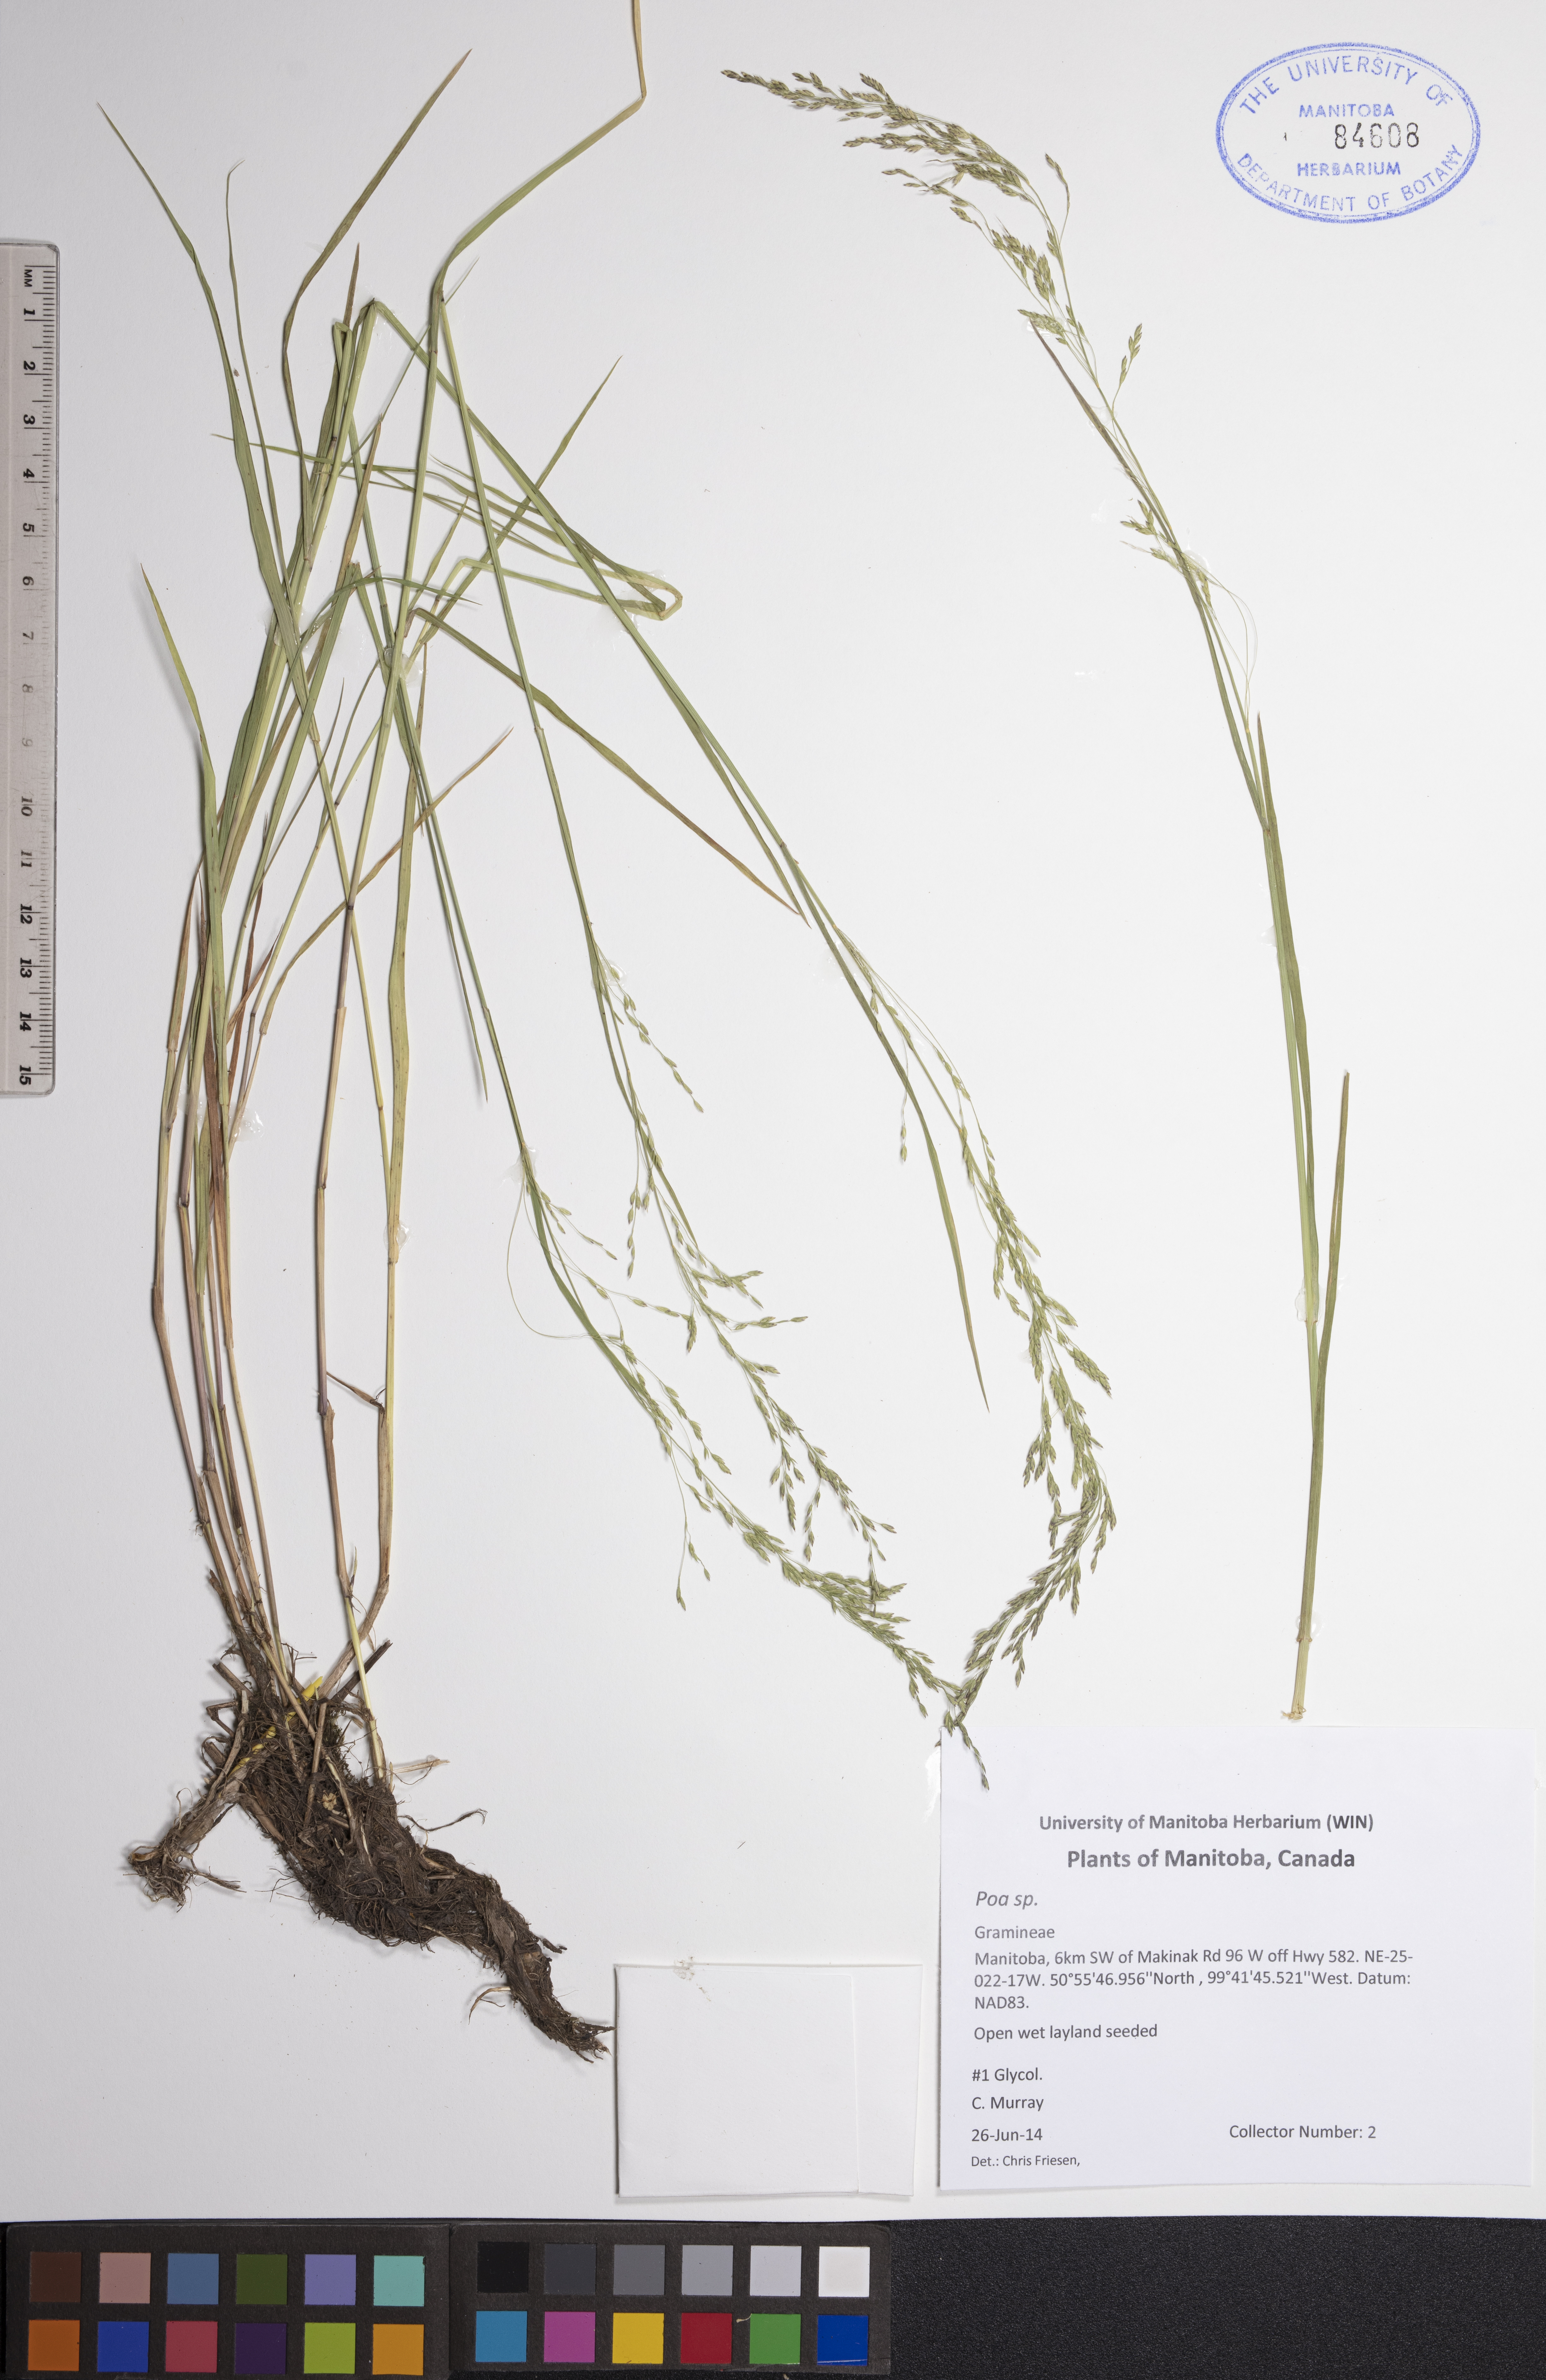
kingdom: Plantae
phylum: Tracheophyta
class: Liliopsida
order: Poales
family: Poaceae
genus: Poa
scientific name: Poa
